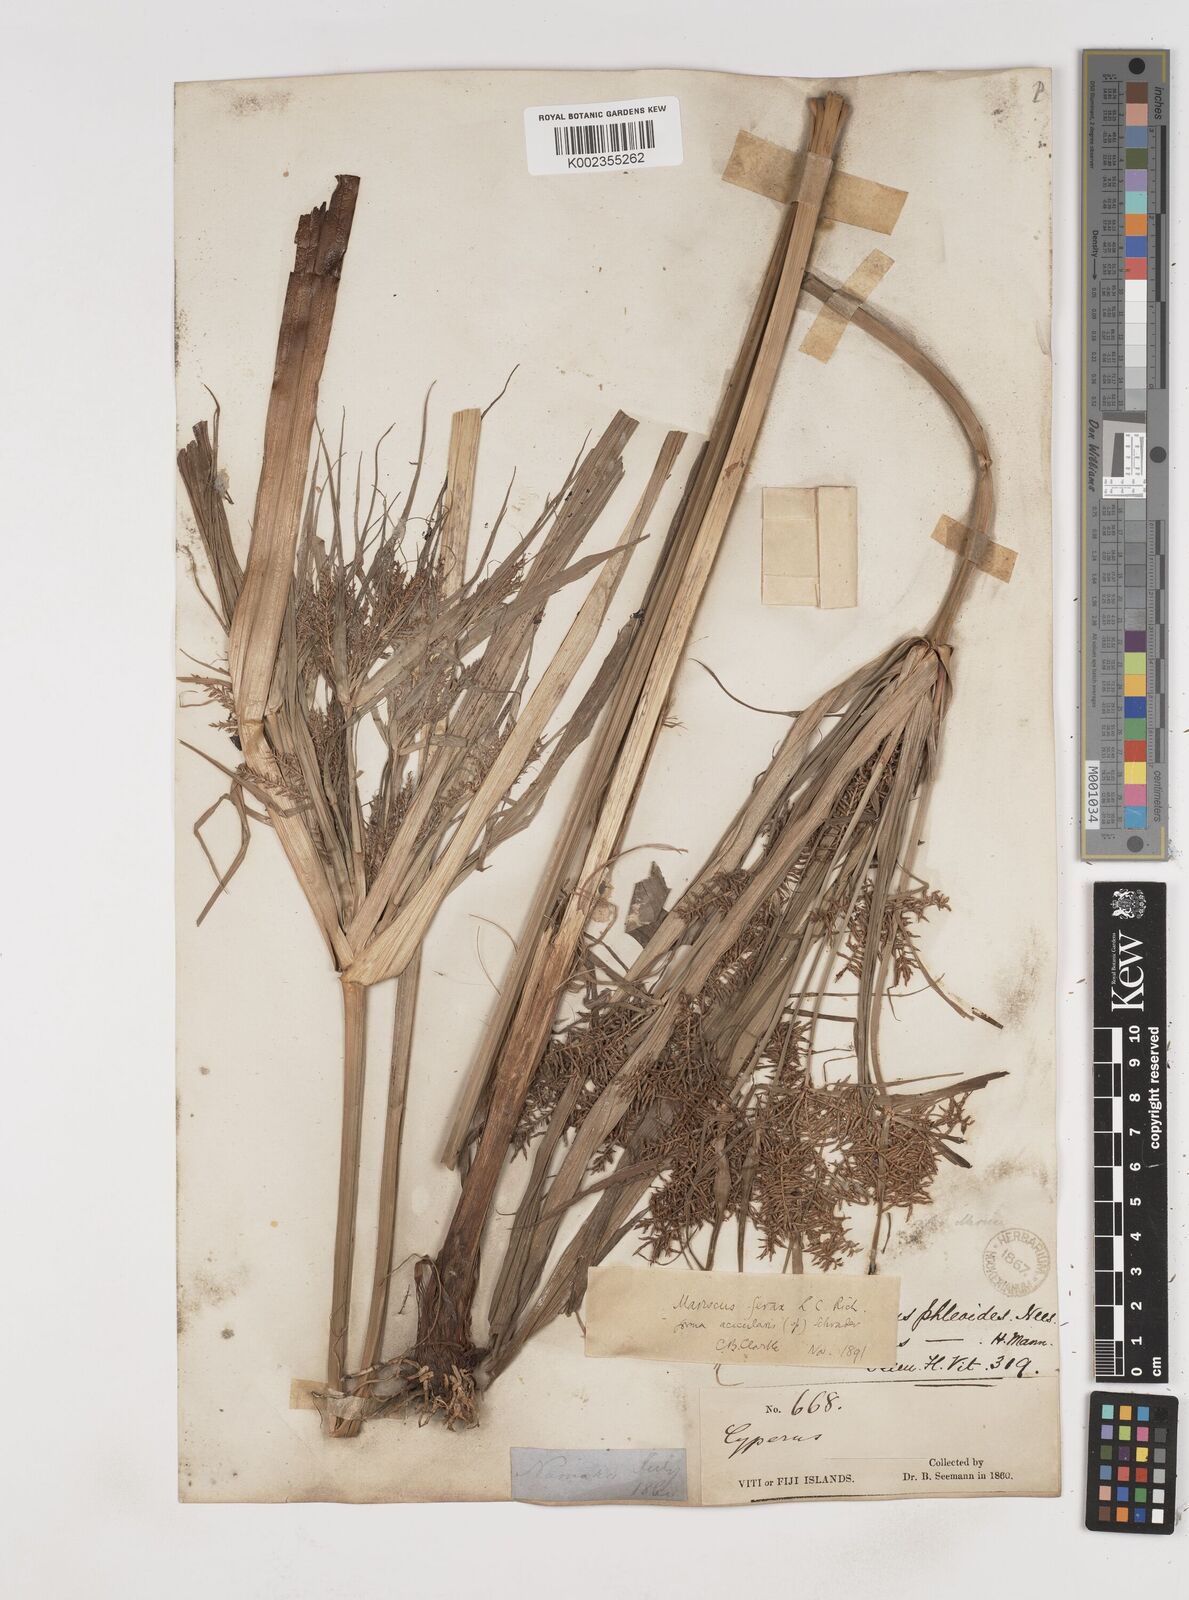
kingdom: Plantae
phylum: Tracheophyta
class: Liliopsida
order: Poales
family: Cyperaceae
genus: Cyperus
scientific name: Cyperus odoratus
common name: Fragrant flatsedge
